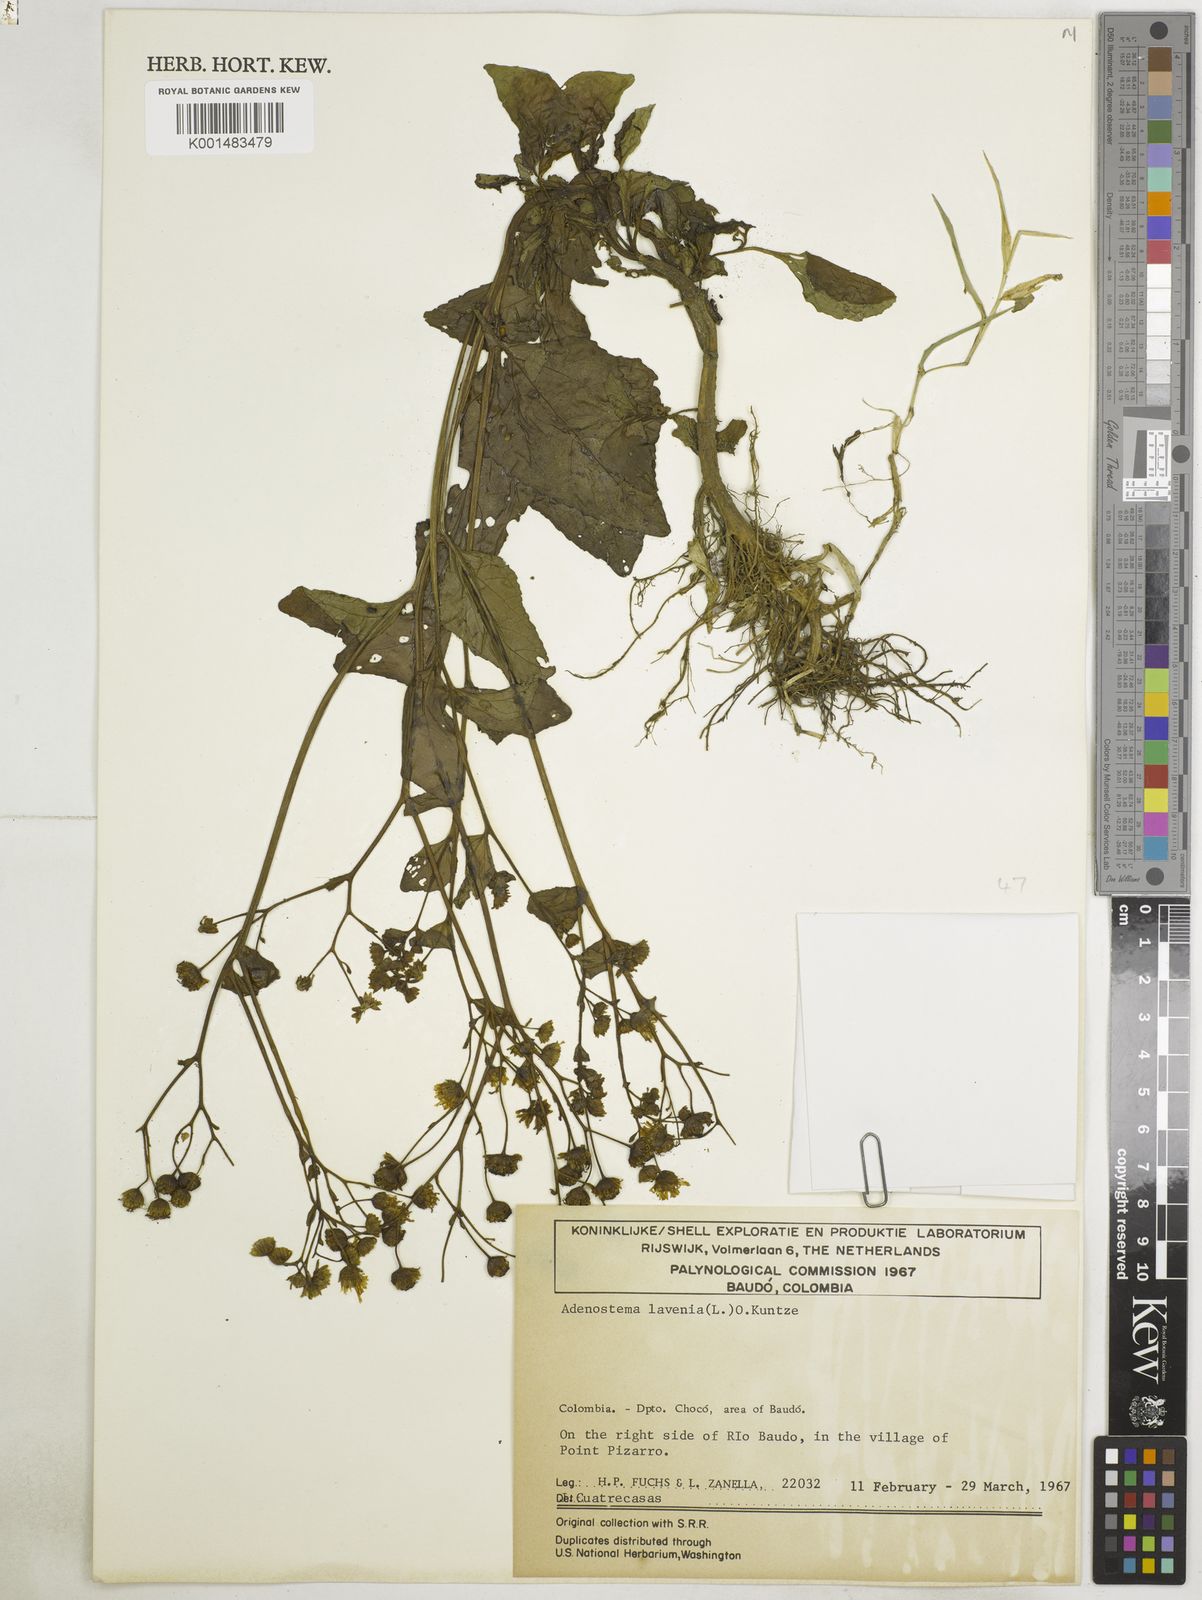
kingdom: Plantae
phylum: Tracheophyta
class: Magnoliopsida
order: Asterales
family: Asteraceae
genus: Adenostemma
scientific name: Adenostemma lavenia
